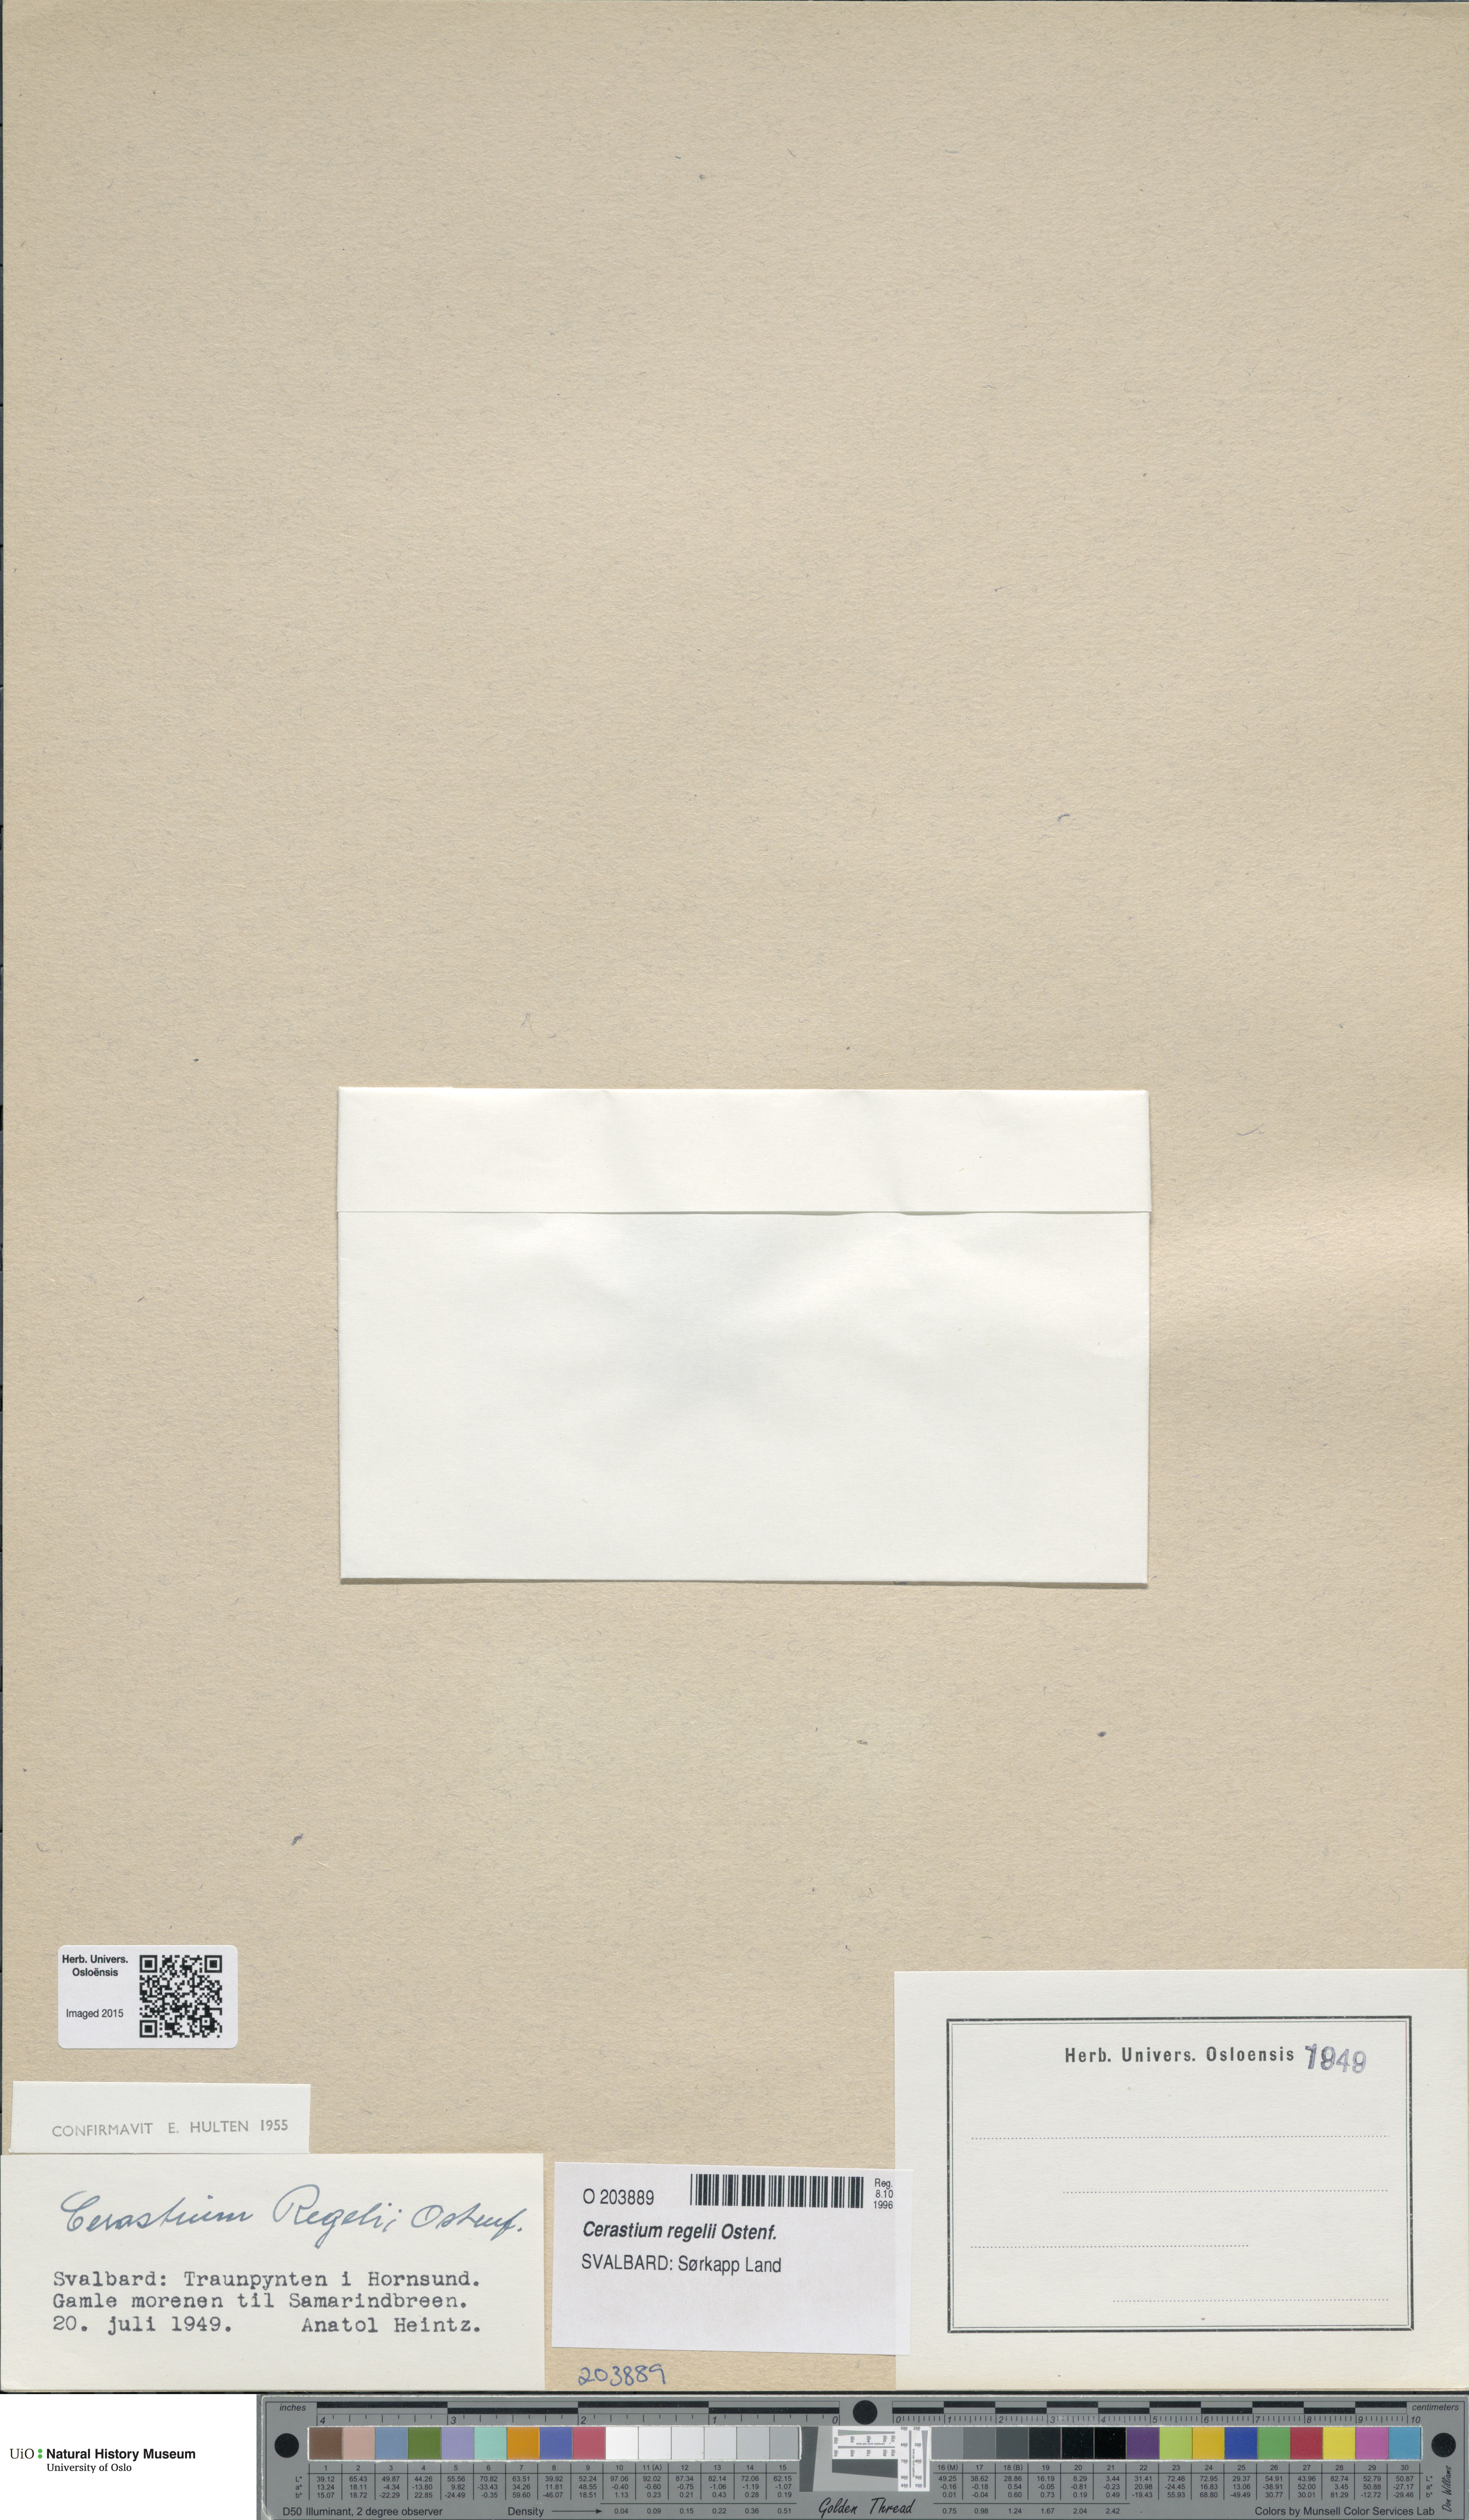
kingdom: Plantae
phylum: Tracheophyta
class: Magnoliopsida
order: Caryophyllales
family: Caryophyllaceae
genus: Cerastium
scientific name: Cerastium regelii
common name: Regel's chickweed
